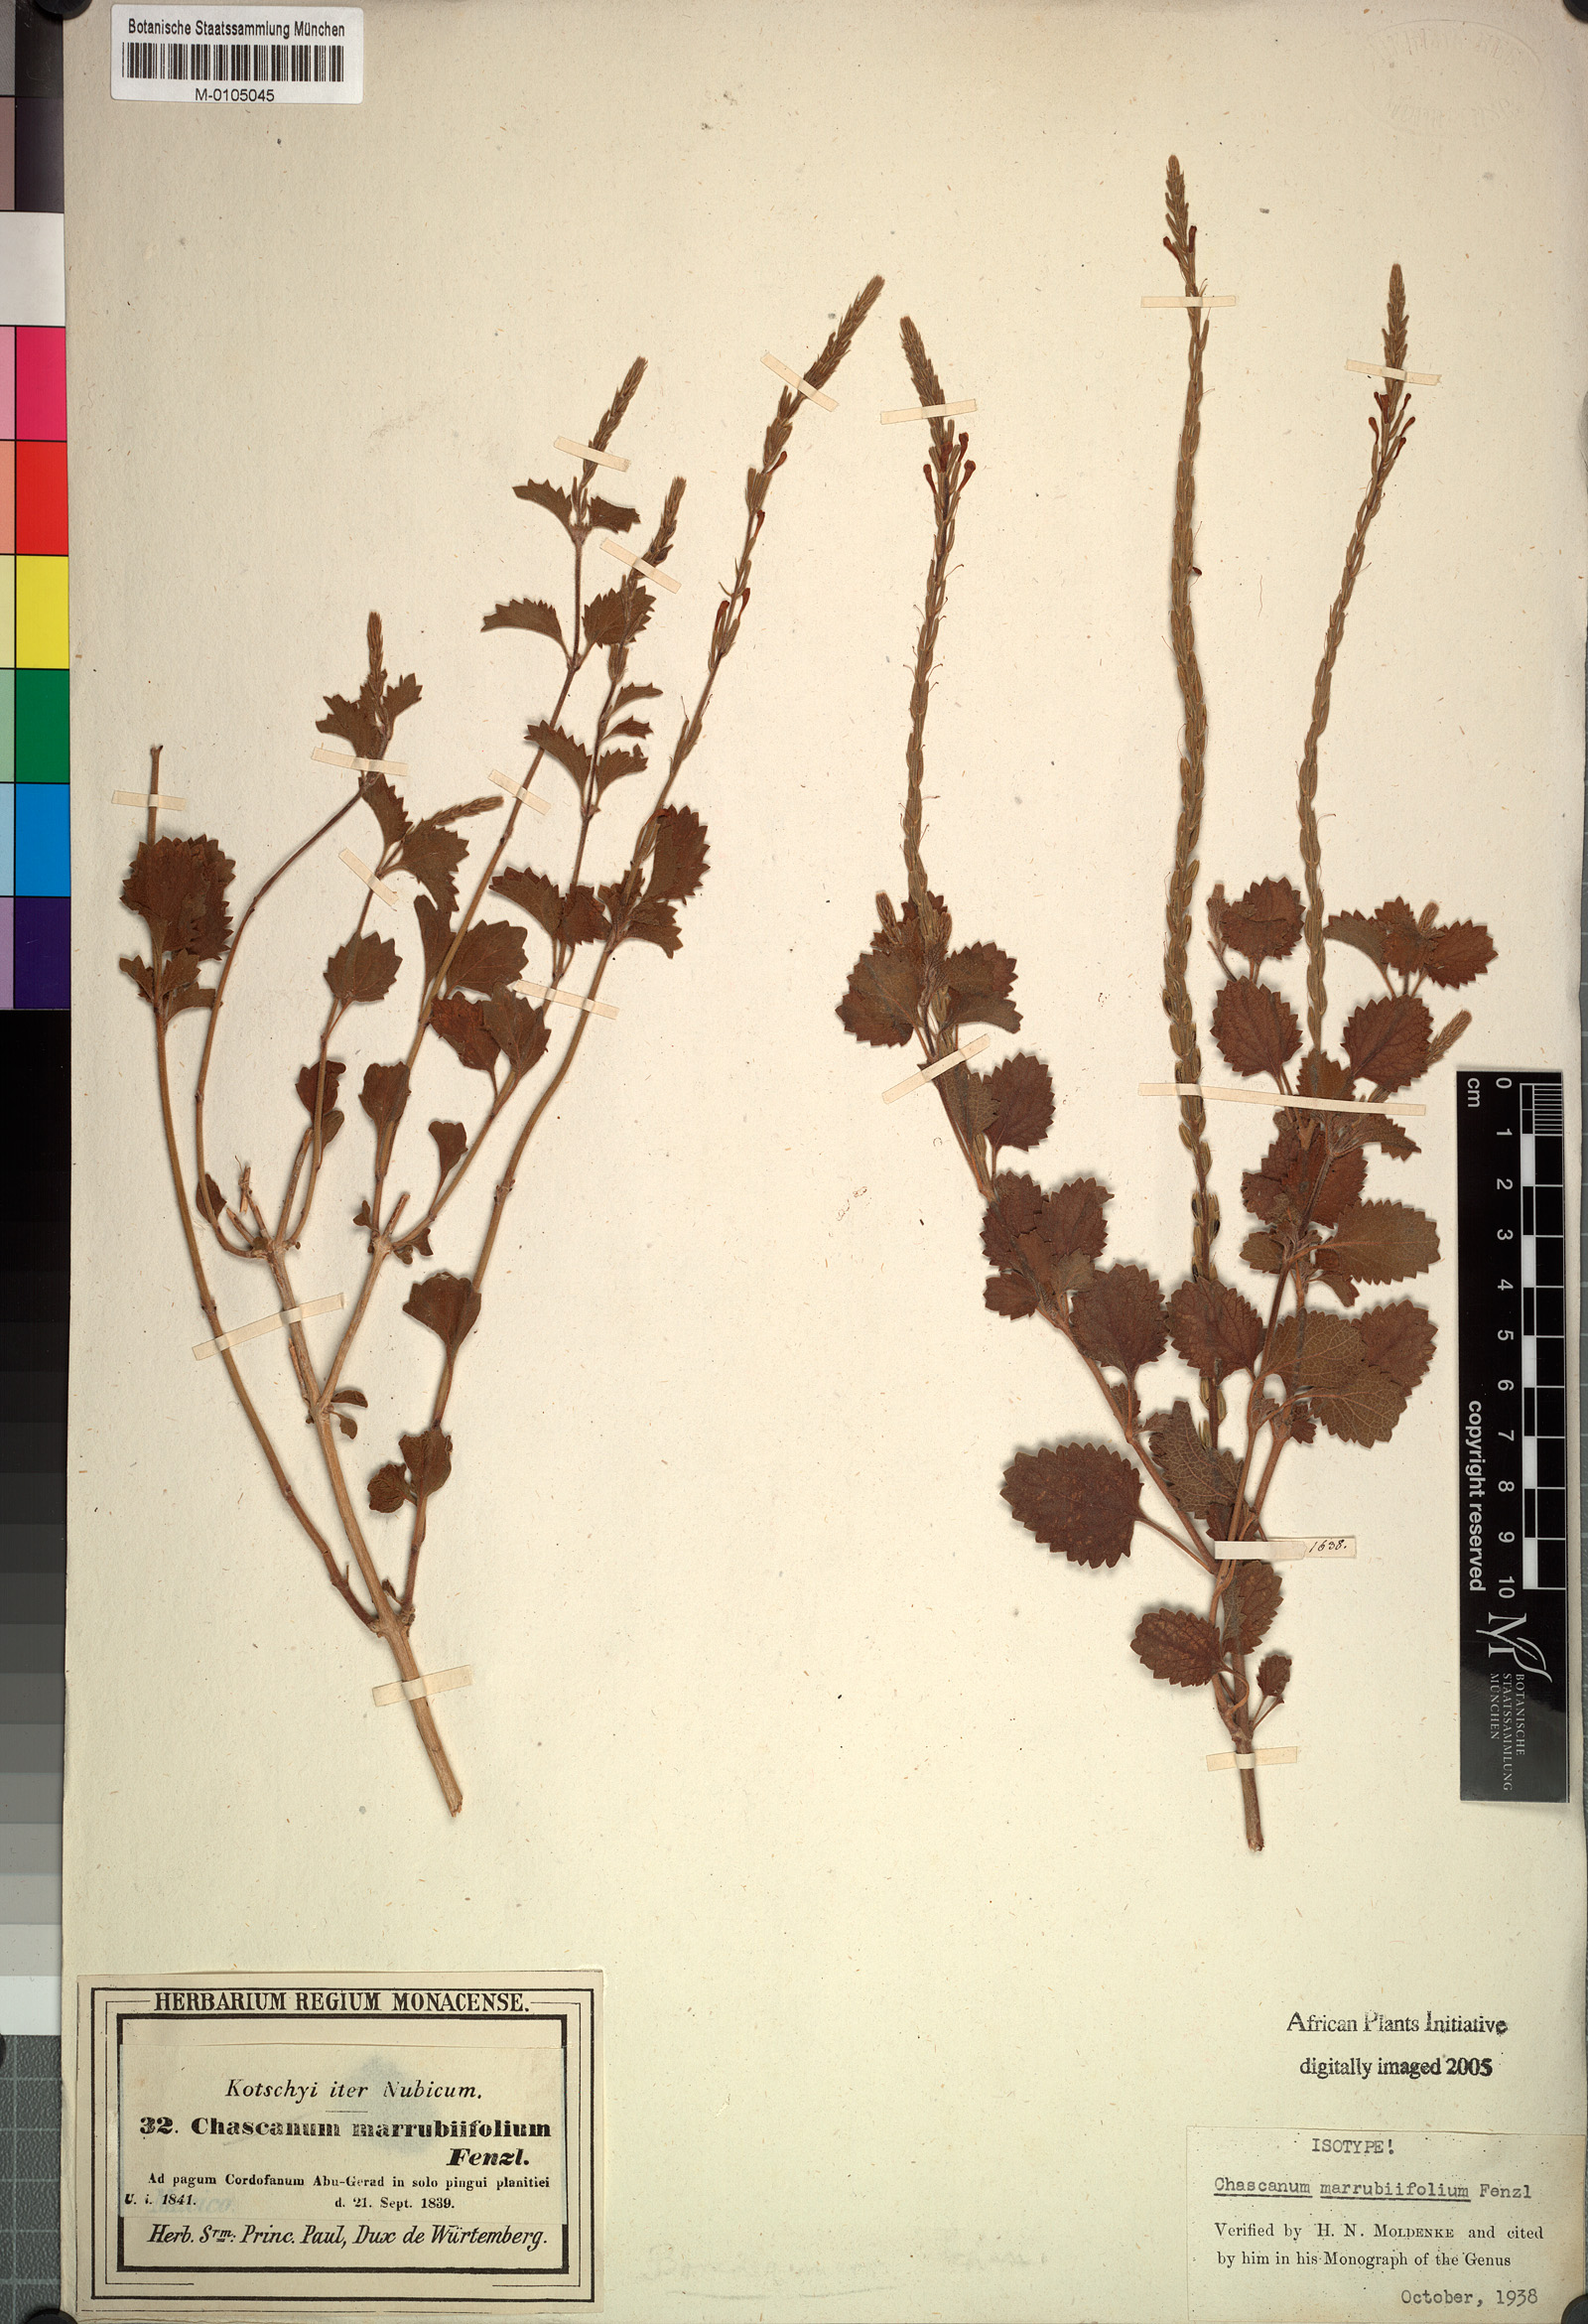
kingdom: Plantae
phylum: Tracheophyta
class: Magnoliopsida
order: Lamiales
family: Verbenaceae
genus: Chascanum
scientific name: Chascanum marrubiifolium
